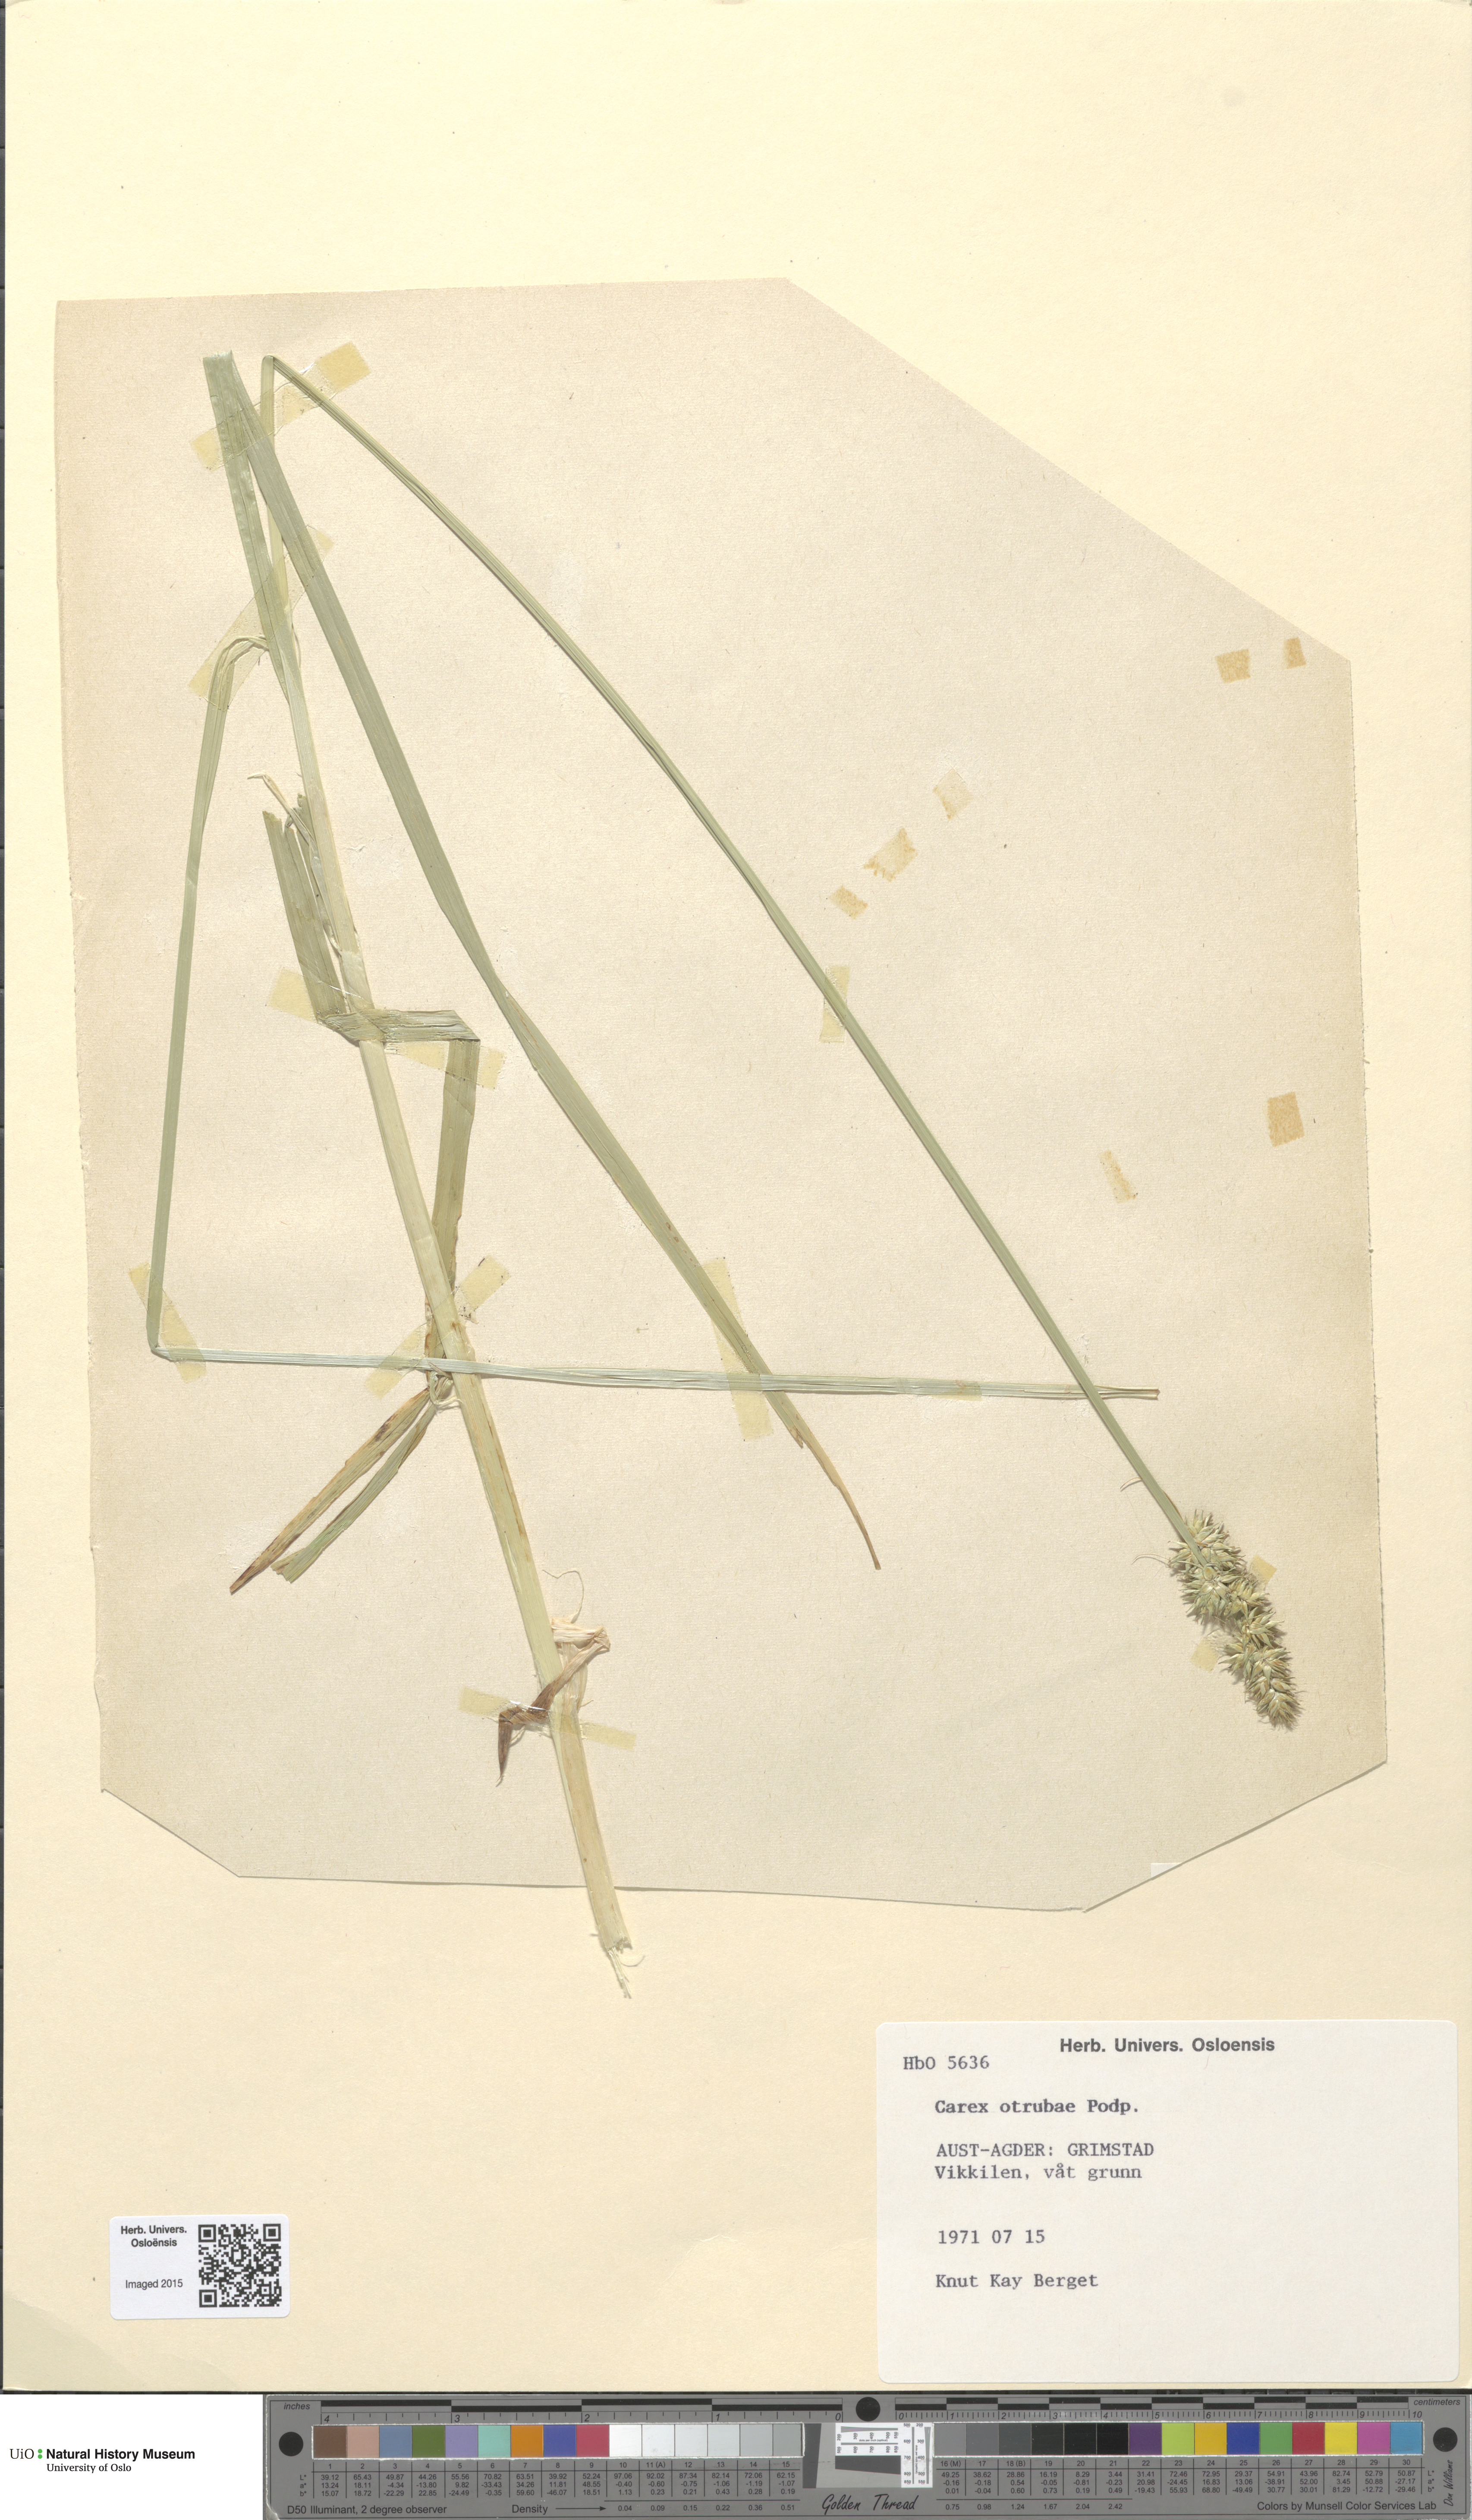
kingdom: Plantae
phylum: Tracheophyta
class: Liliopsida
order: Poales
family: Cyperaceae
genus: Carex
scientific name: Carex otrubae
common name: False fox-sedge
